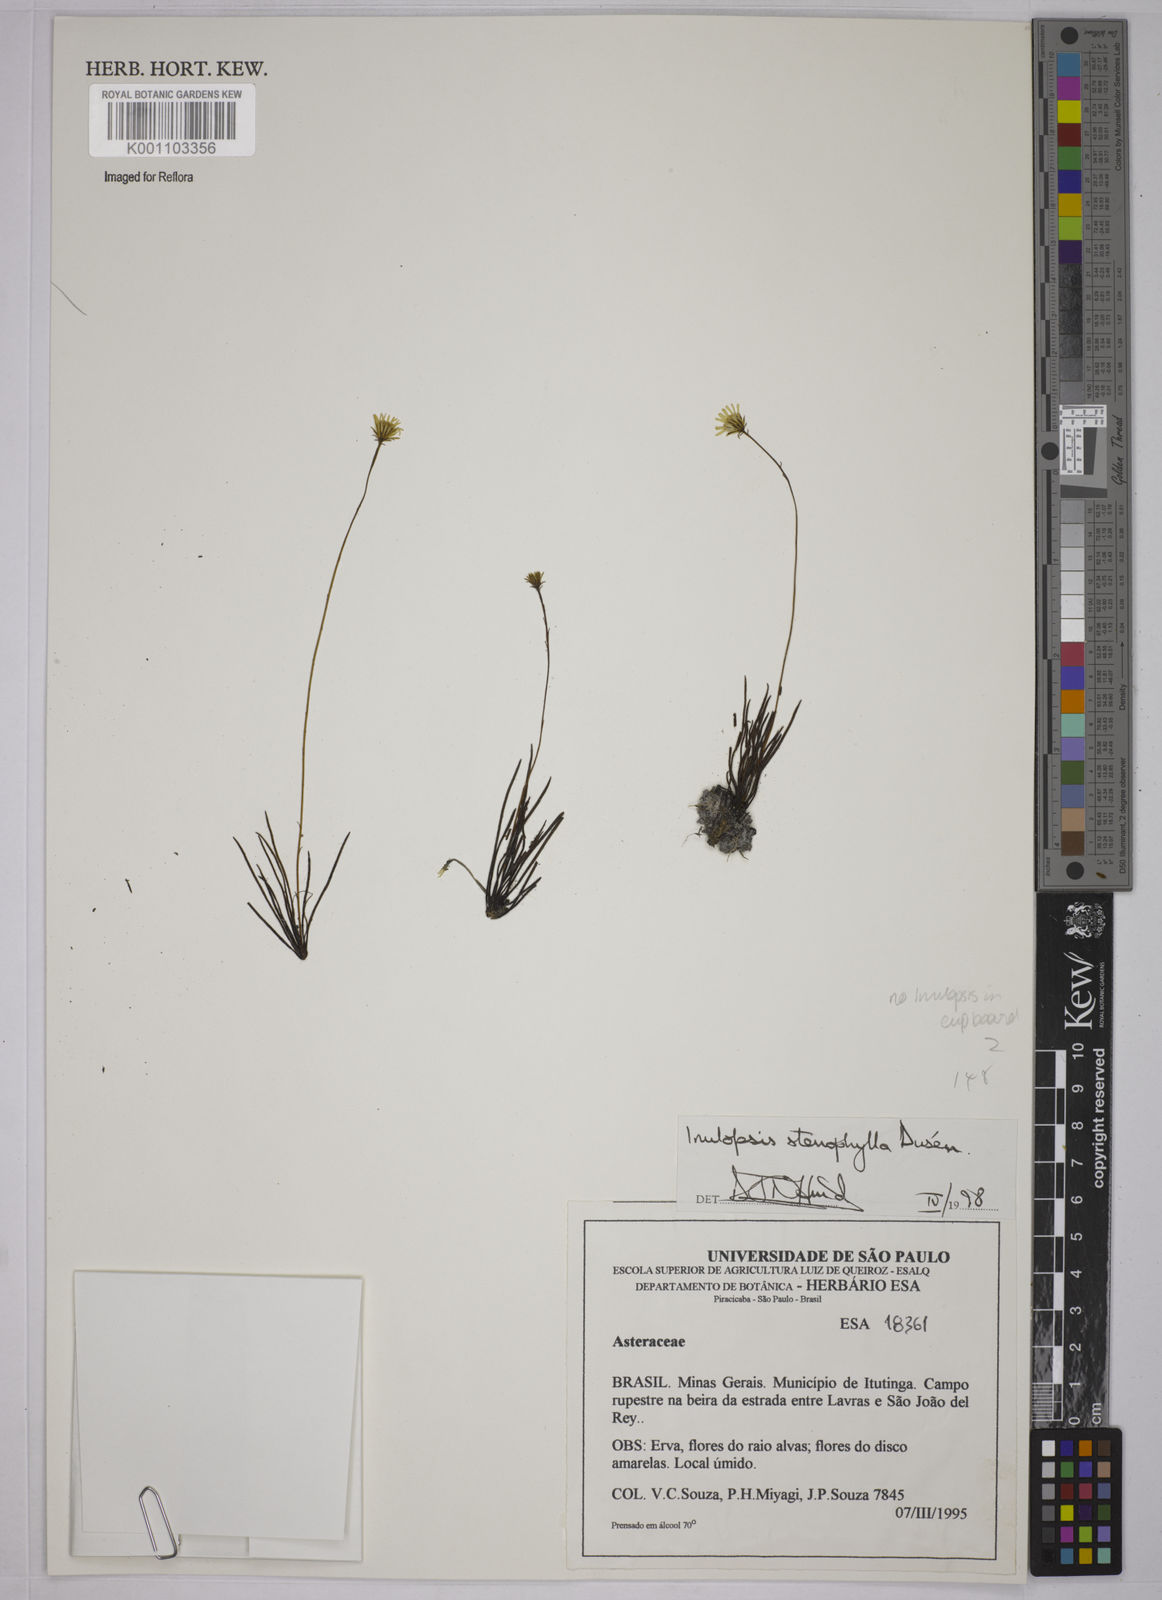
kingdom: Plantae
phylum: Tracheophyta
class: Magnoliopsida
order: Asterales
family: Asteraceae
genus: Inulopsis
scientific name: Inulopsis
